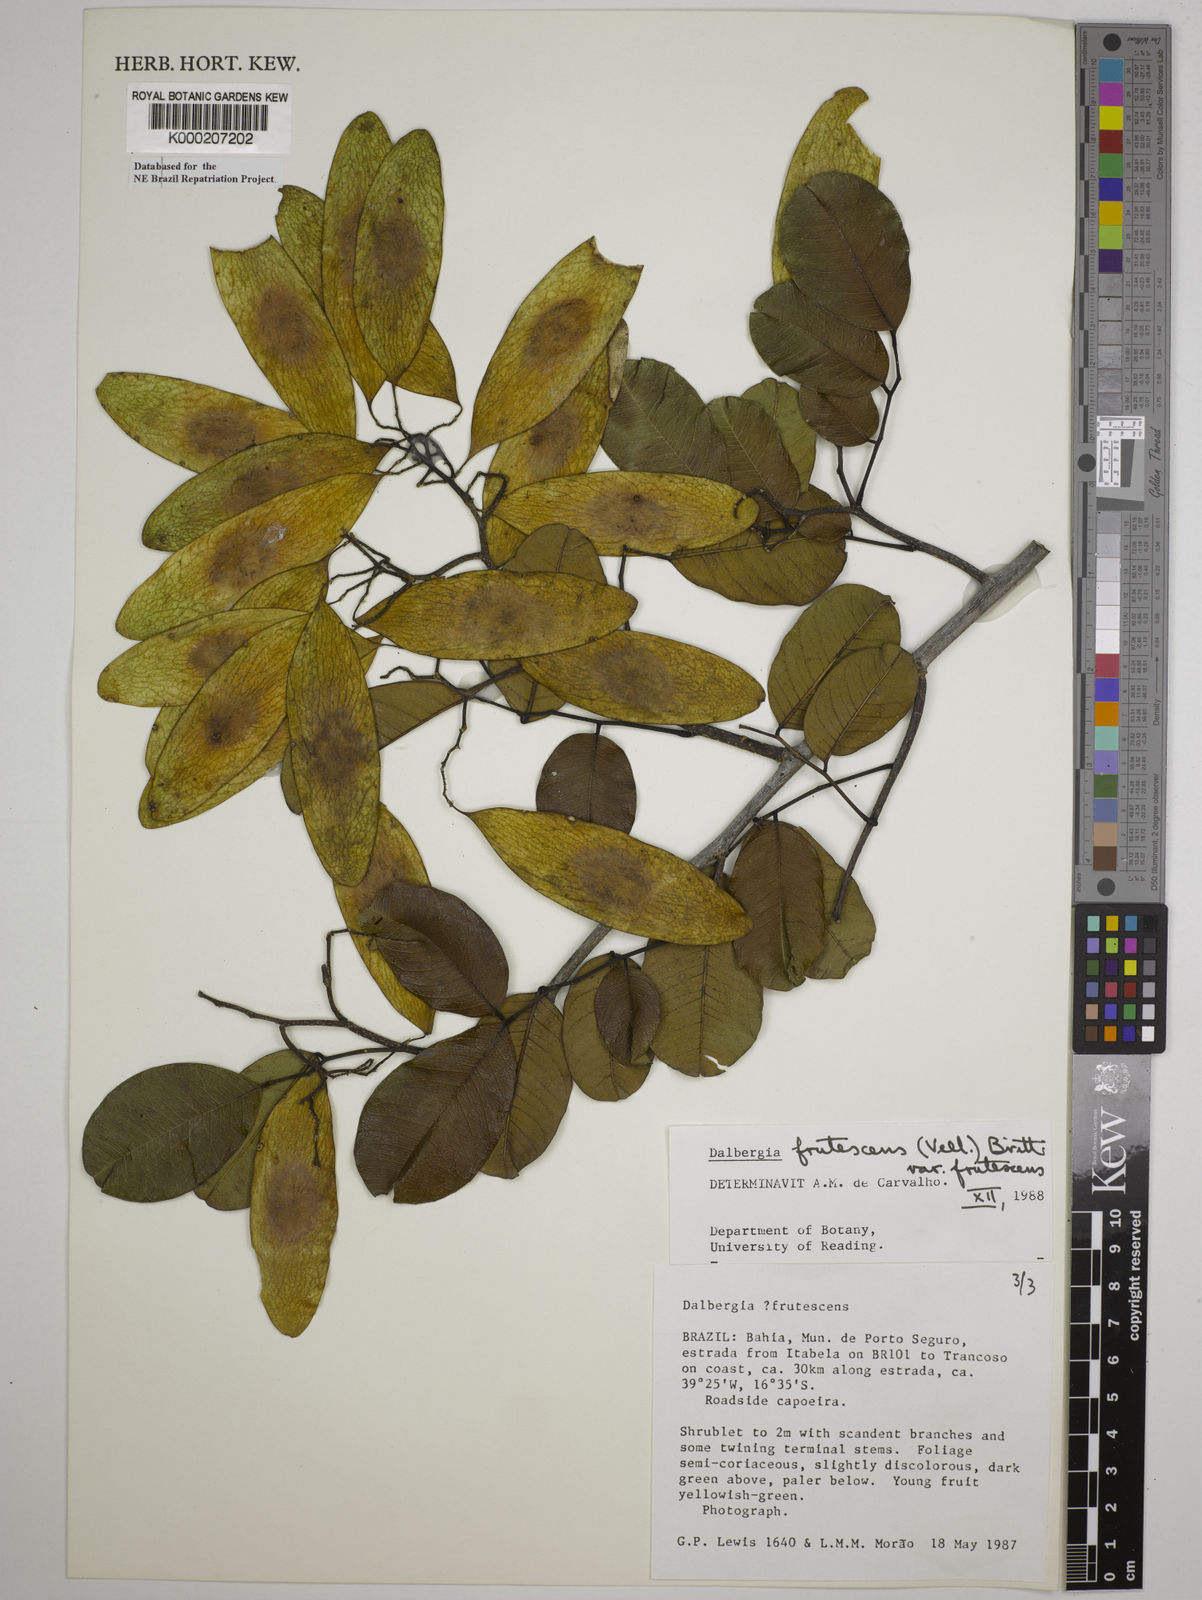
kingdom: Plantae
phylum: Tracheophyta
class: Magnoliopsida
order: Fabales
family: Fabaceae
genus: Dalbergia
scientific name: Dalbergia frutescens
